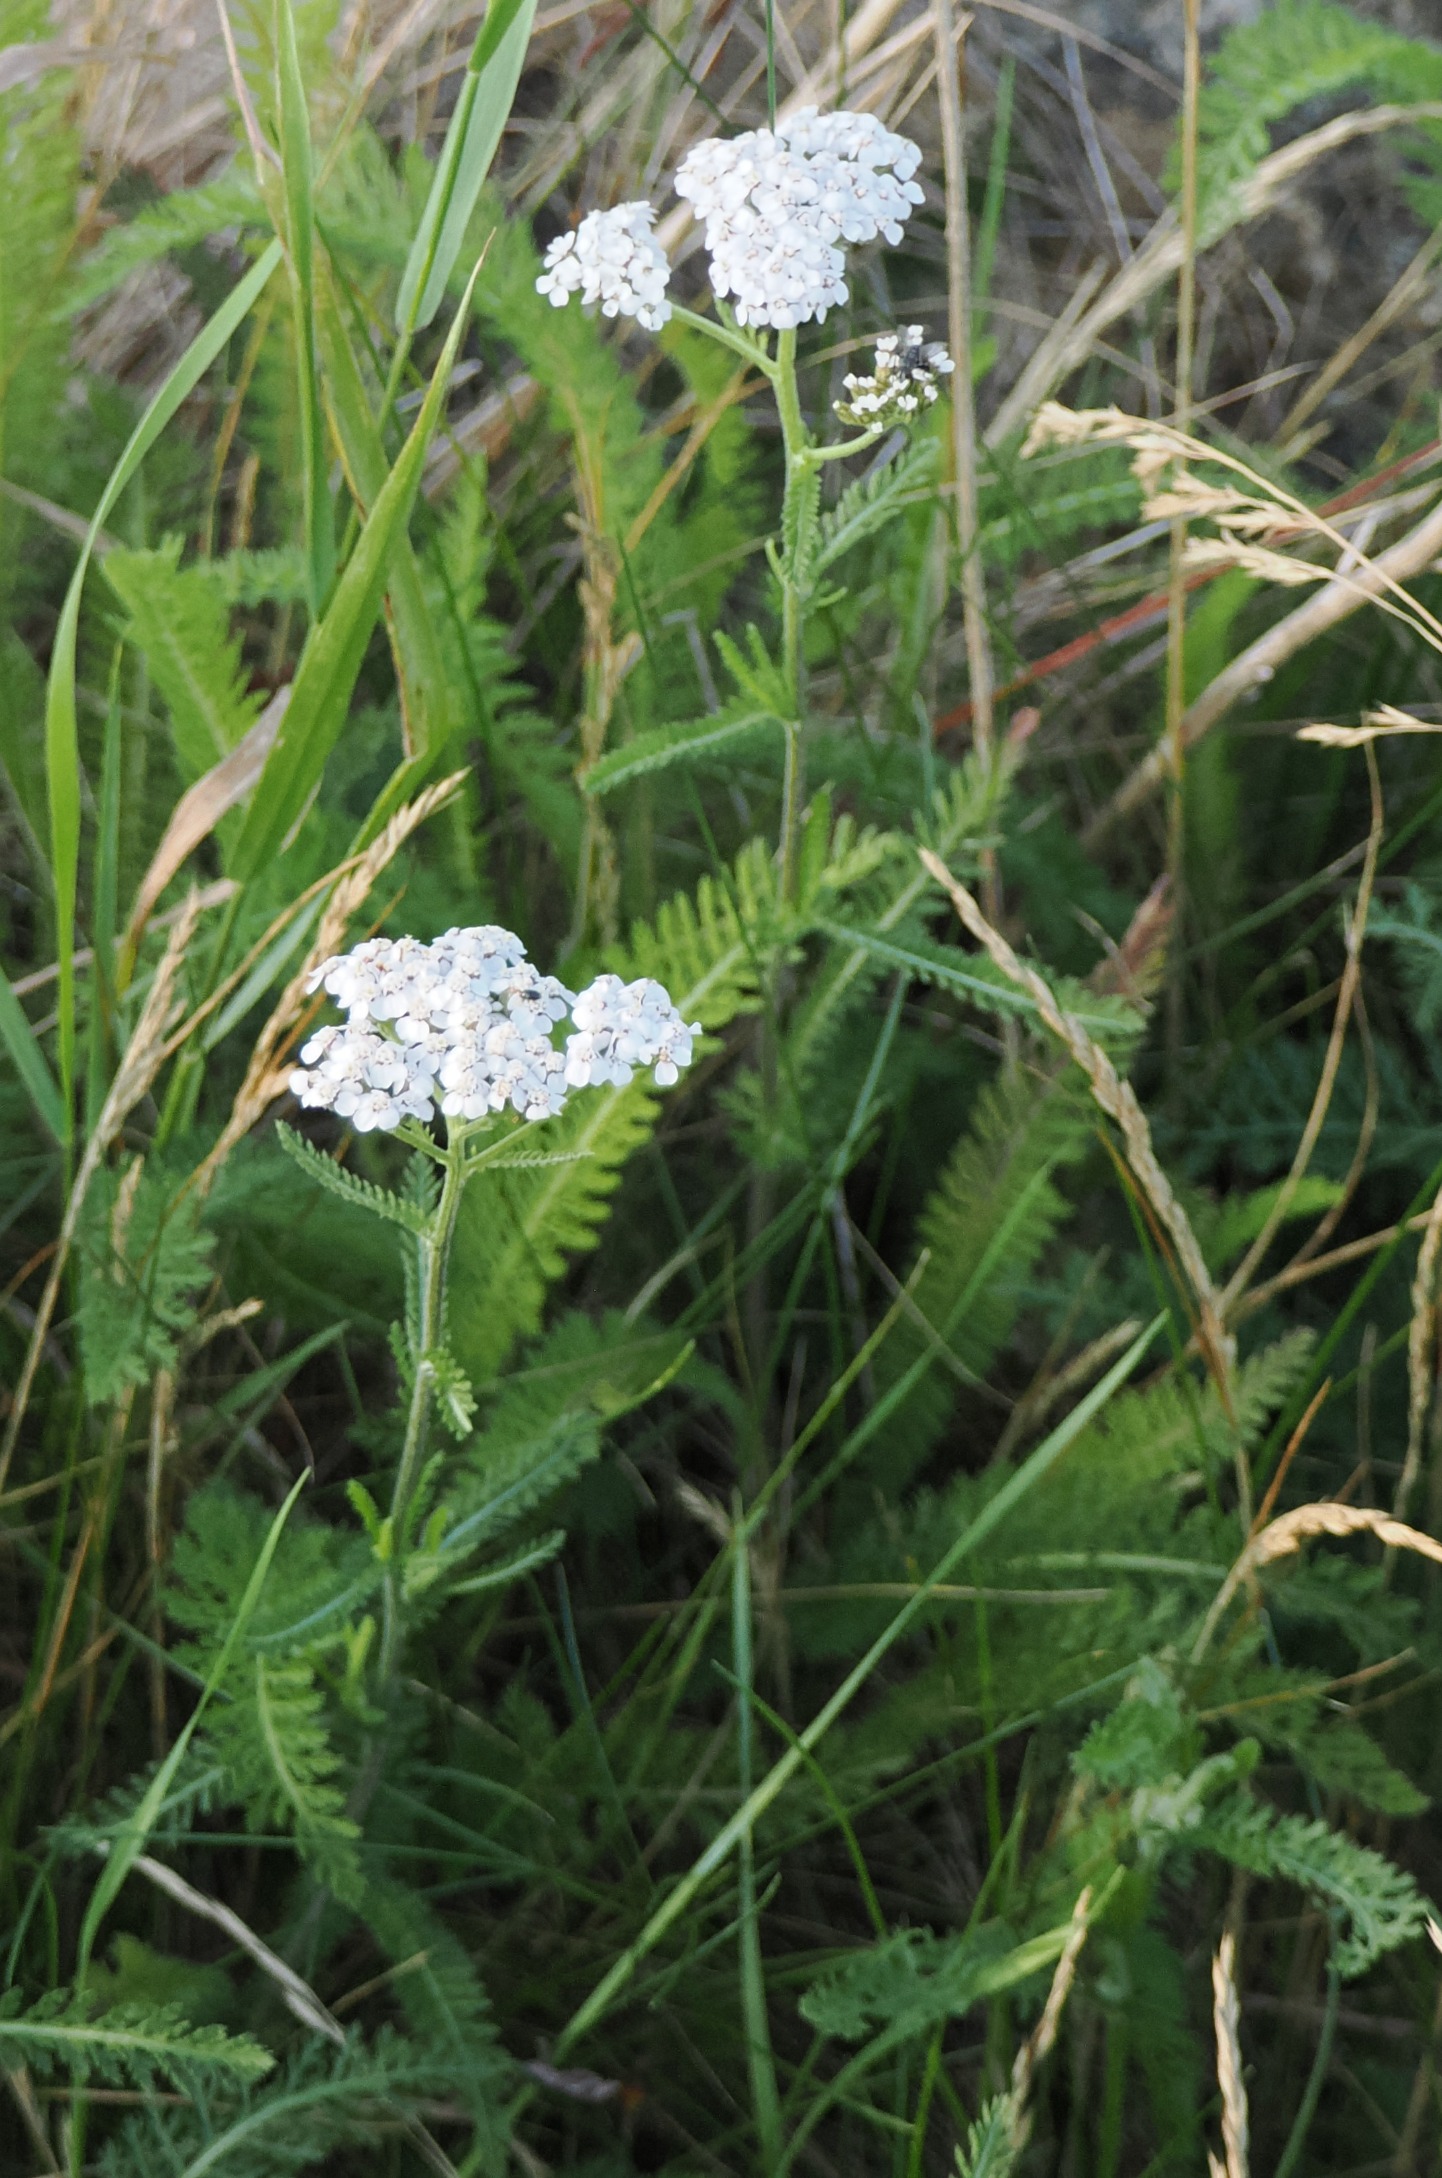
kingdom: Plantae
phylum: Tracheophyta
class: Magnoliopsida
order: Asterales
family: Asteraceae
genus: Achillea
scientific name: Achillea millefolium
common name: Almindelig røllike
